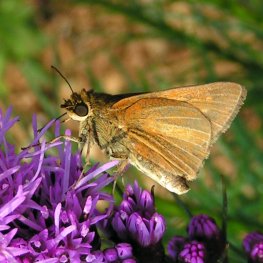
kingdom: Animalia
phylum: Arthropoda
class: Insecta
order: Lepidoptera
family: Hesperiidae
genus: Euphyes
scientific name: Euphyes dukesi
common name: Dukes' Skipper
